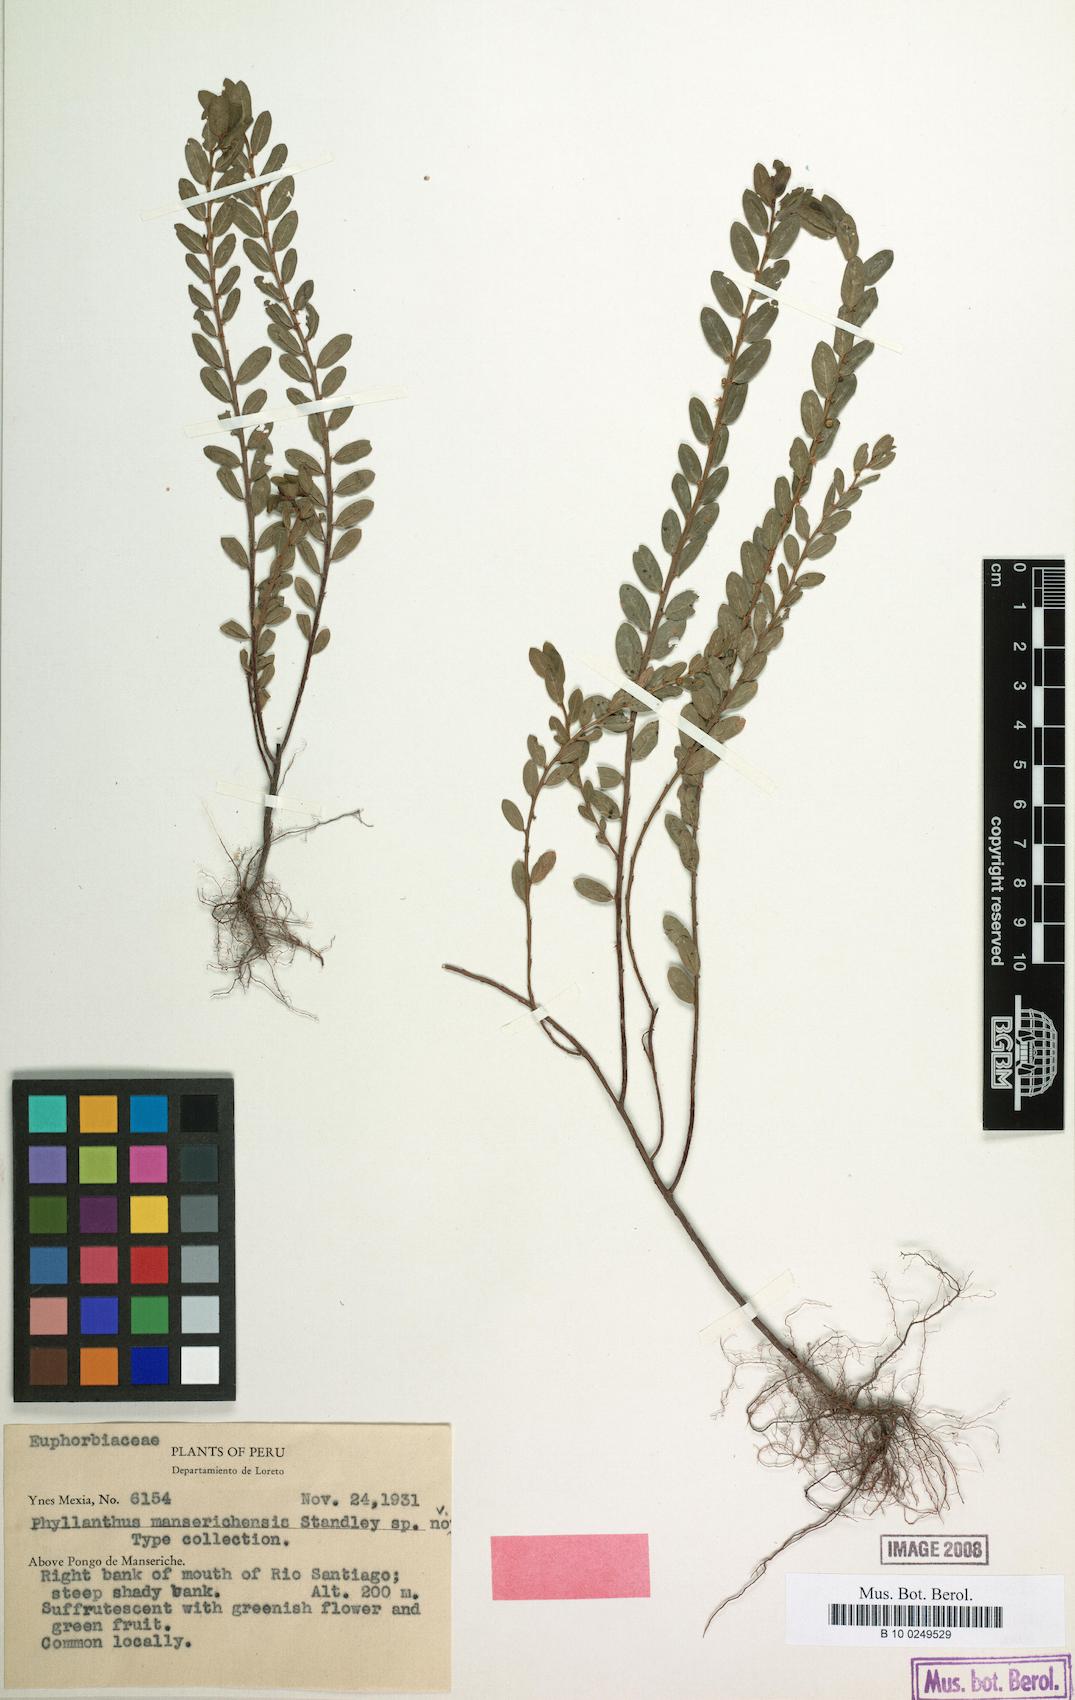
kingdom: Plantae
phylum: Tracheophyta
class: Magnoliopsida
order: Malpighiales
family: Phyllanthaceae
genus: Phyllanthus
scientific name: Phyllanthus
